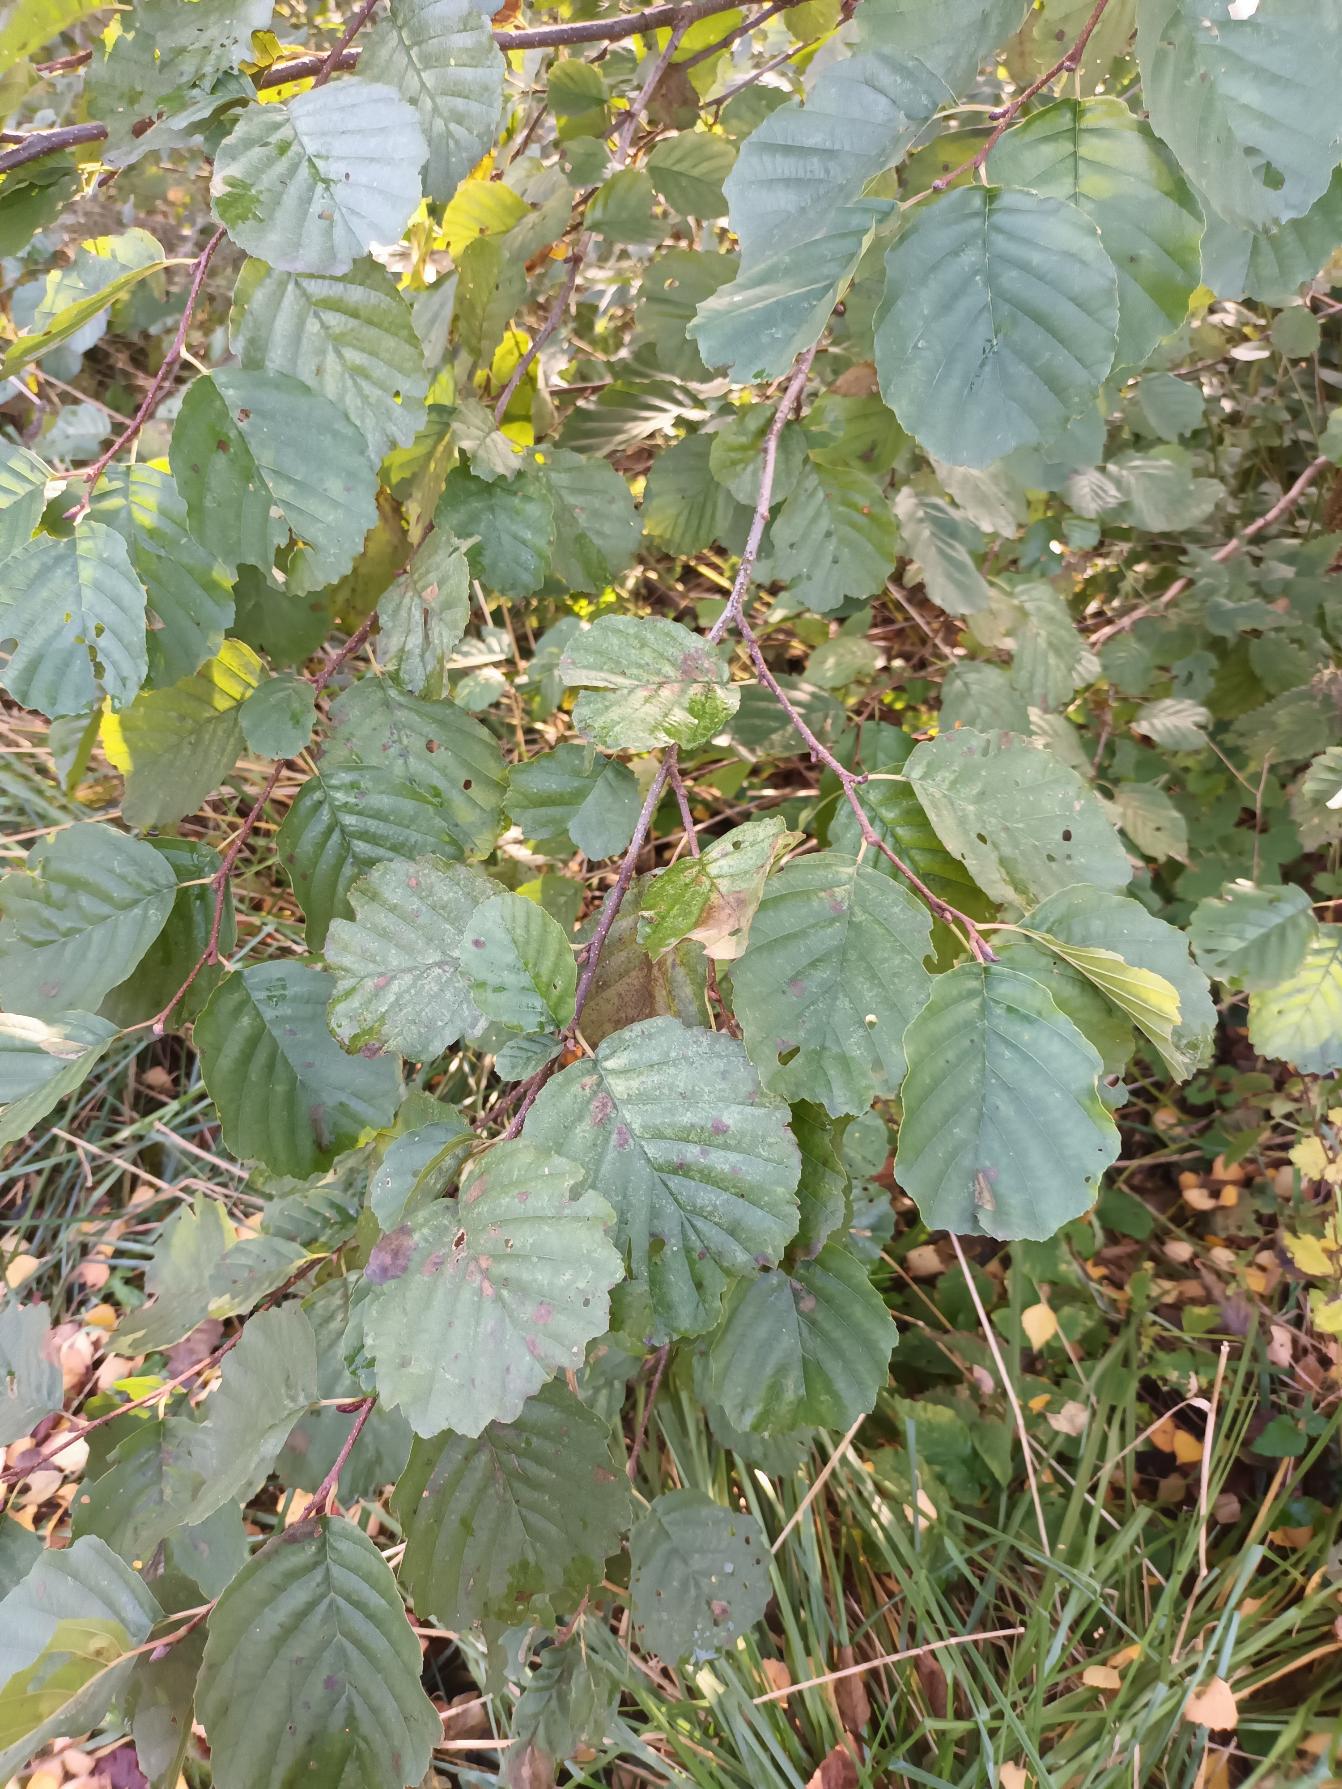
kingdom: Plantae
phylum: Tracheophyta
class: Magnoliopsida
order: Fagales
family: Betulaceae
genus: Alnus
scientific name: Alnus glutinosa
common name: Rød-el
